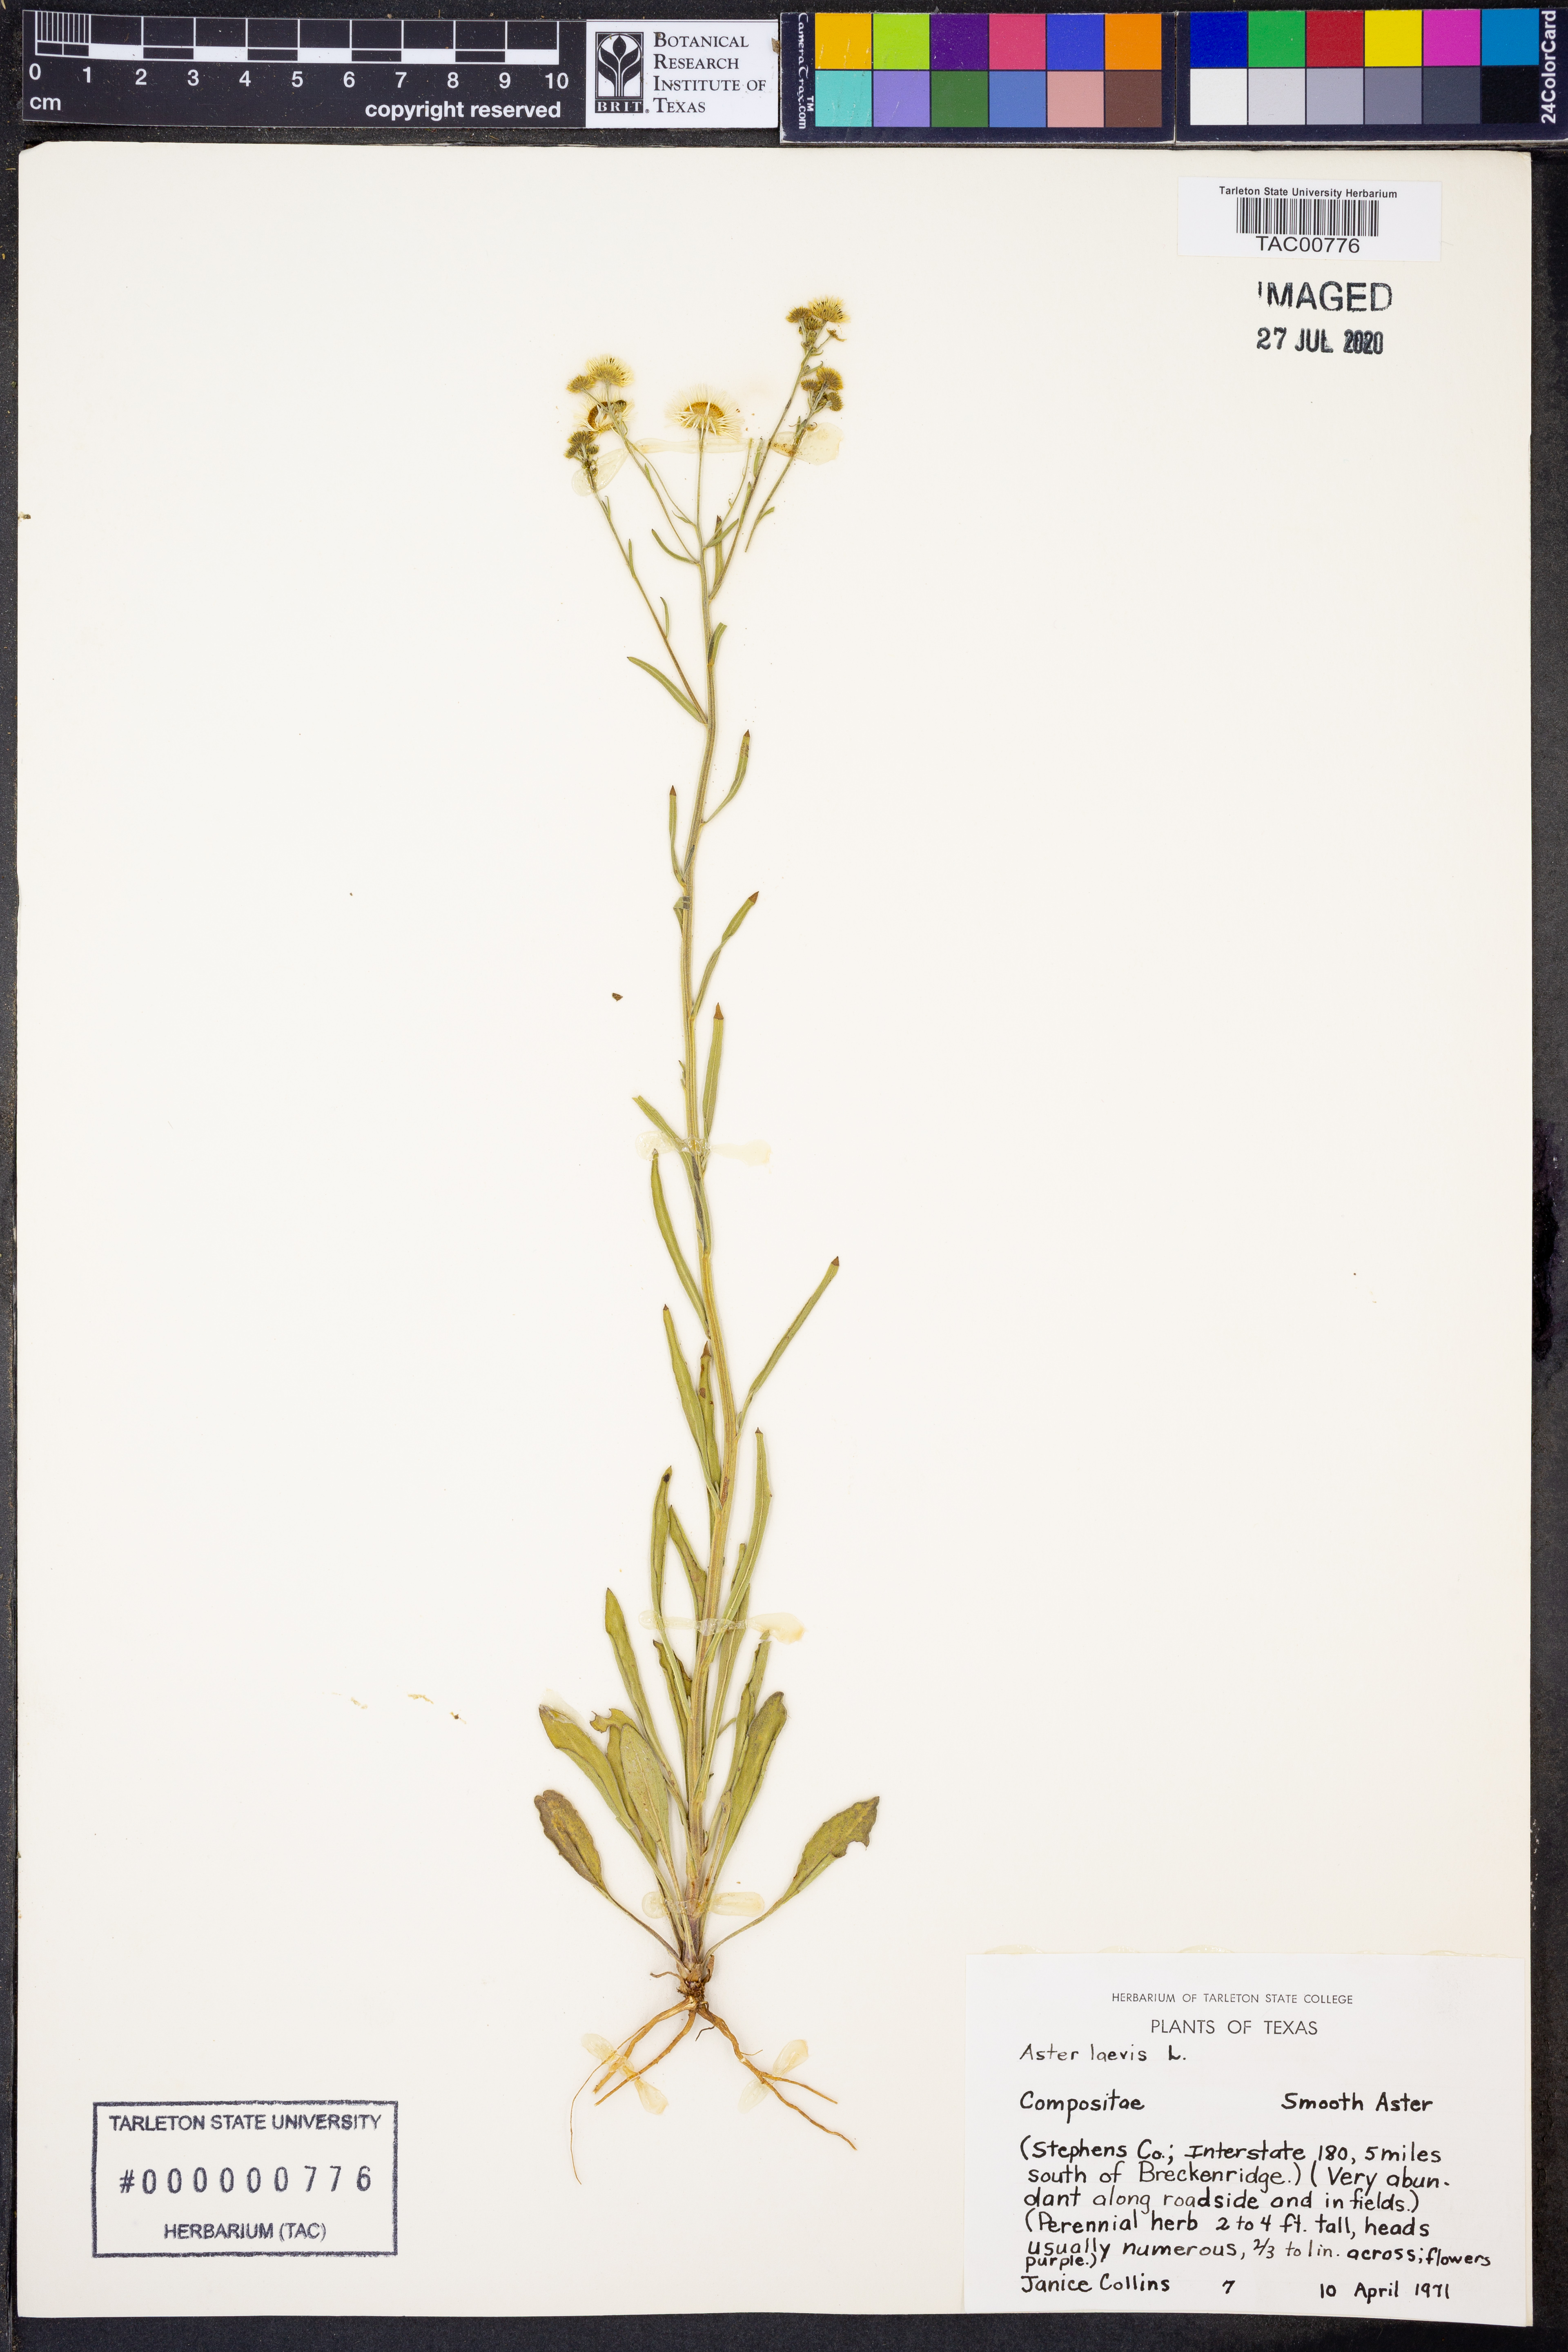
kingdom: Plantae
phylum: Tracheophyta
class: Magnoliopsida
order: Asterales
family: Asteraceae
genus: Symphyotrichum
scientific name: Symphyotrichum laeve
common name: Glaucous aster
